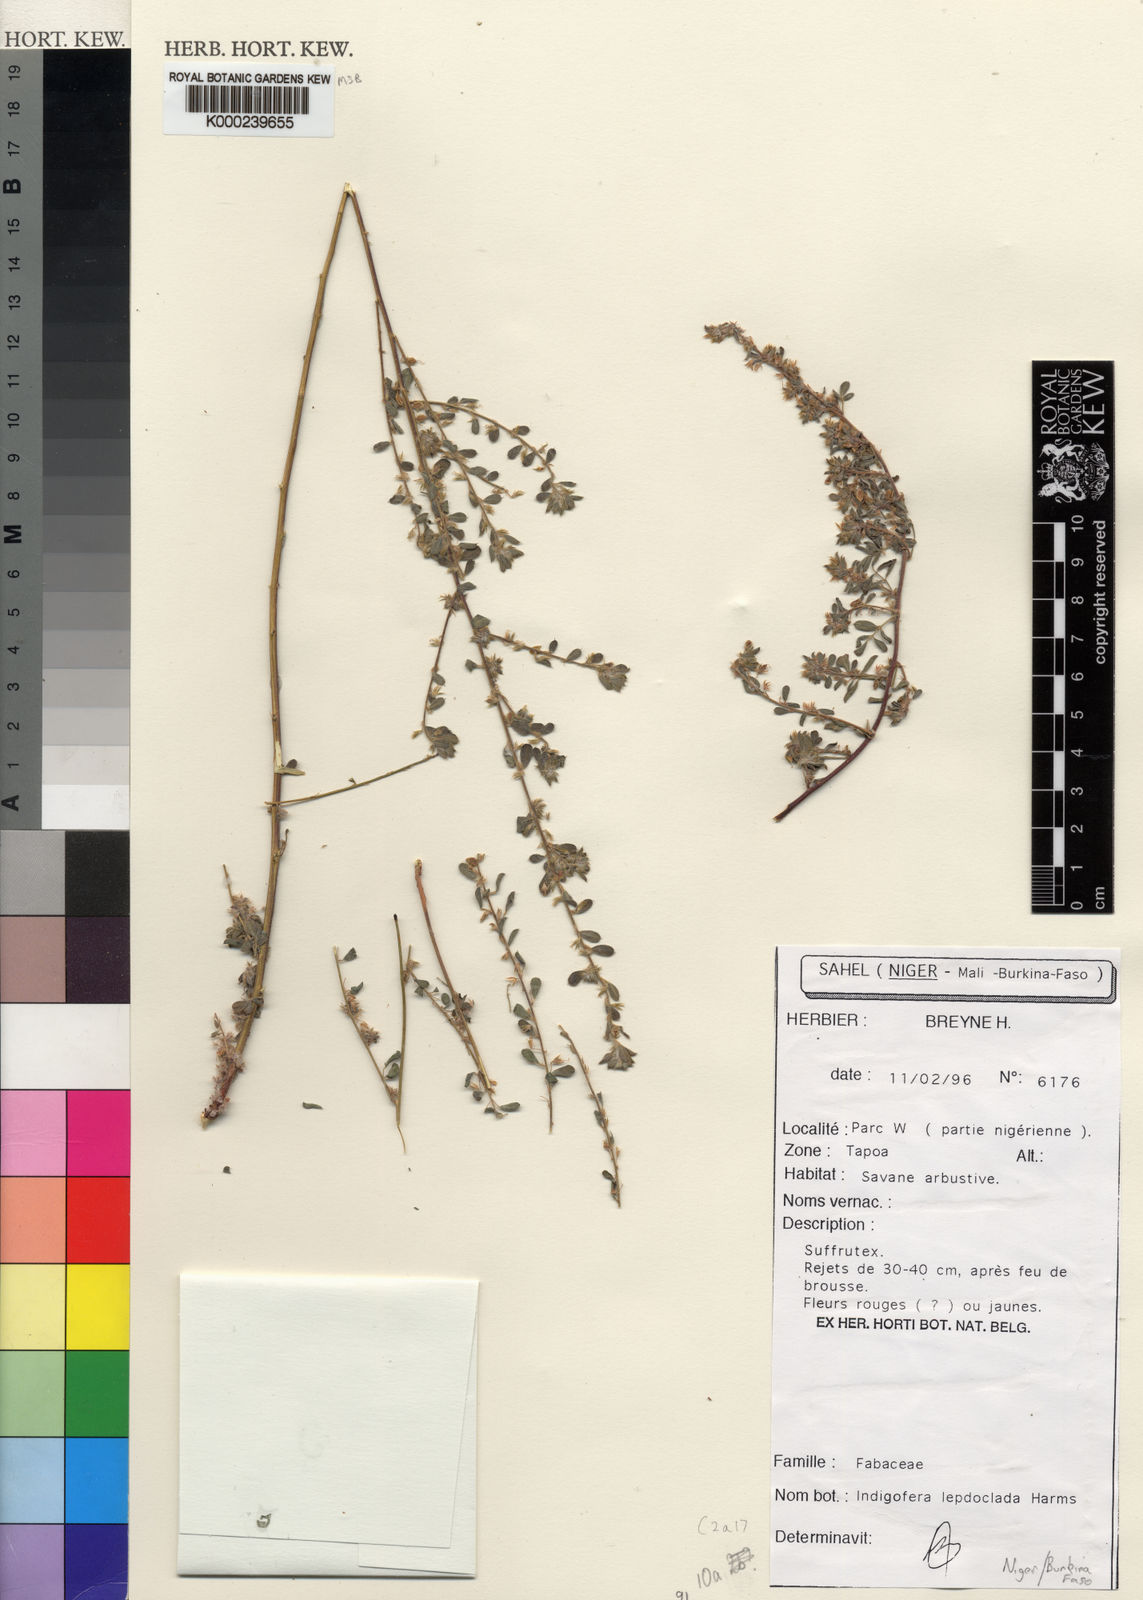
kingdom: Plantae
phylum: Tracheophyta
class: Magnoliopsida
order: Fabales
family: Fabaceae
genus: Indigofera
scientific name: Indigofera leptoclada
